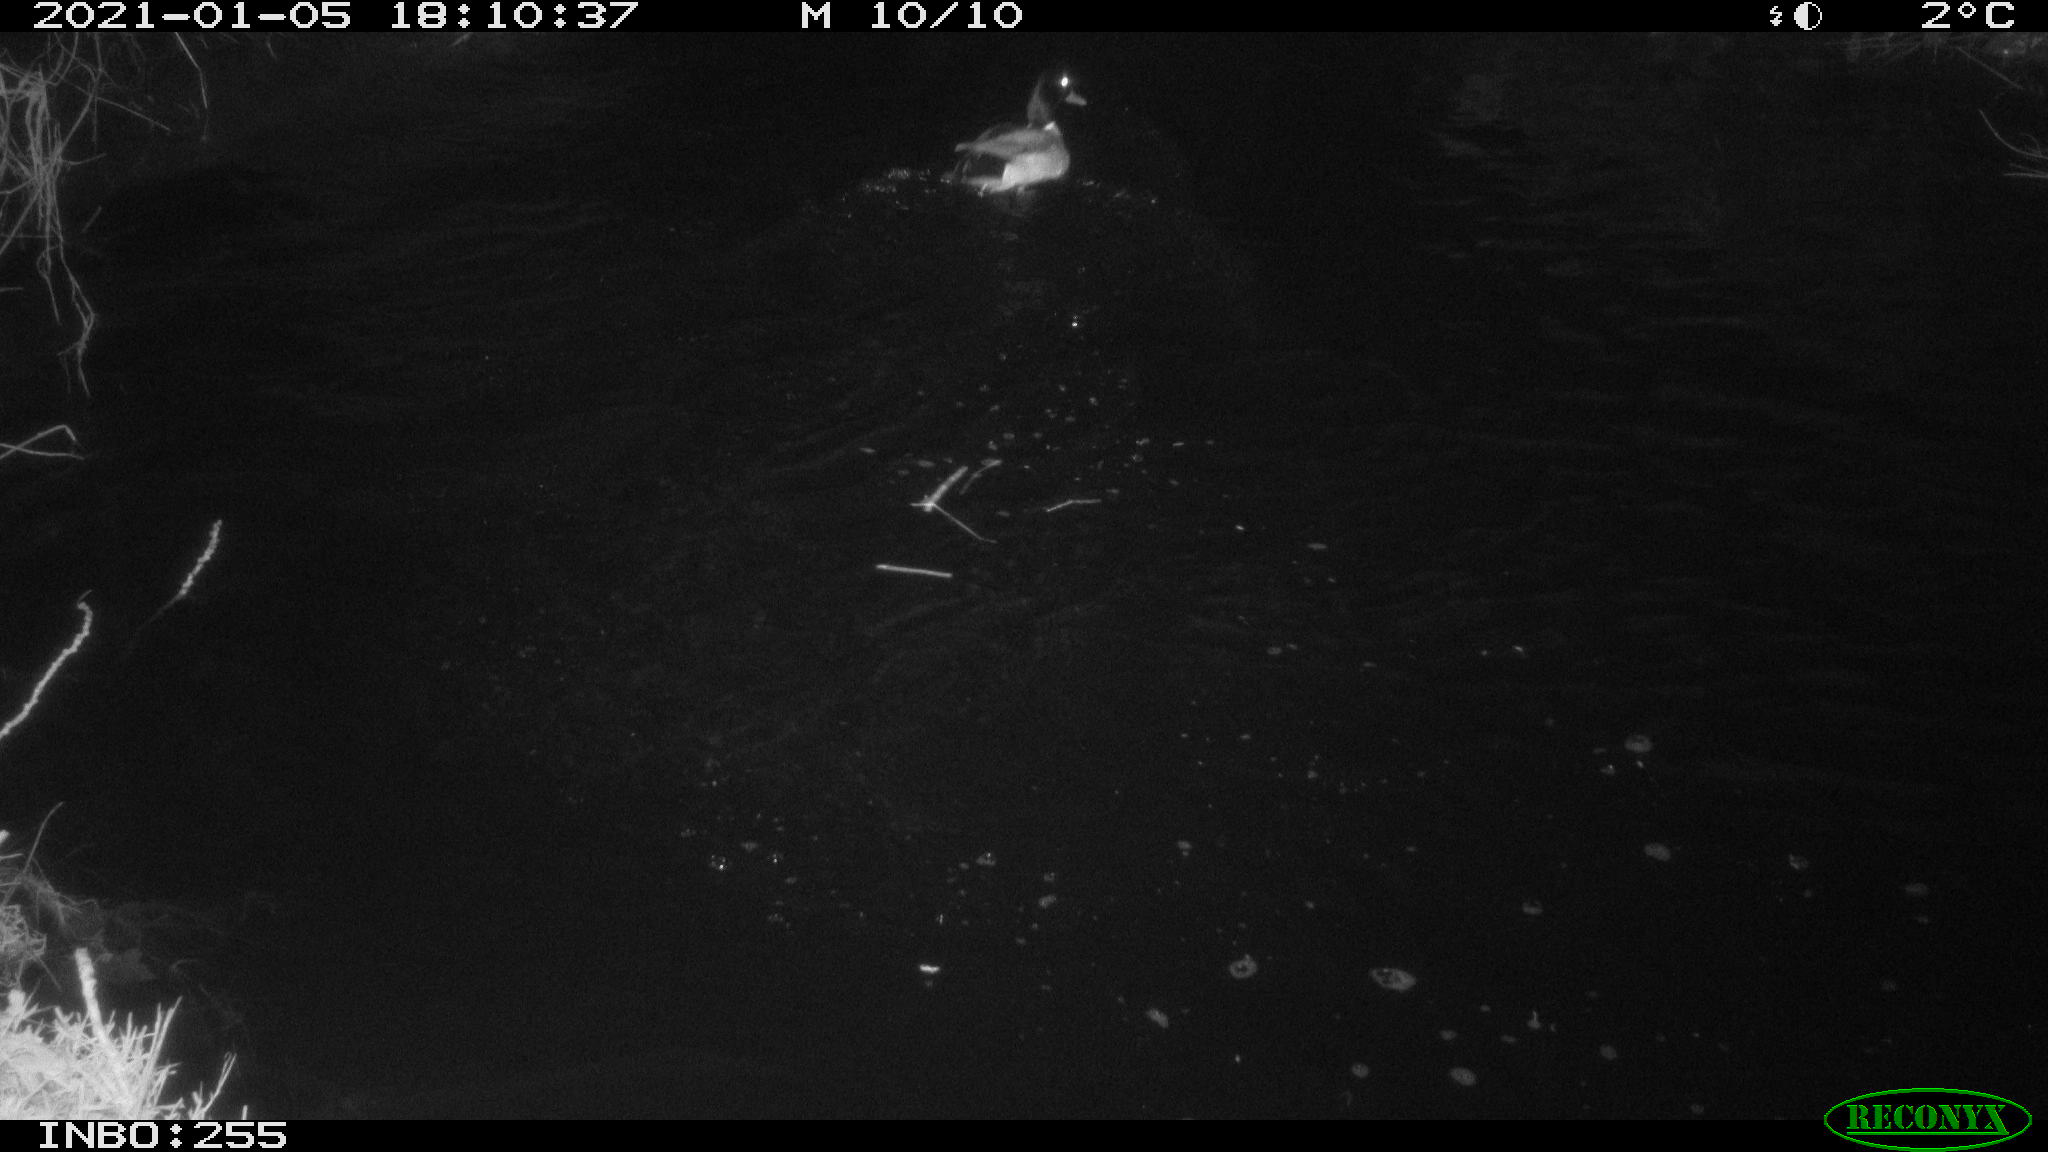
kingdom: Animalia
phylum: Chordata
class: Aves
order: Anseriformes
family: Anatidae
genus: Anas
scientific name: Anas platyrhynchos
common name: Mallard
